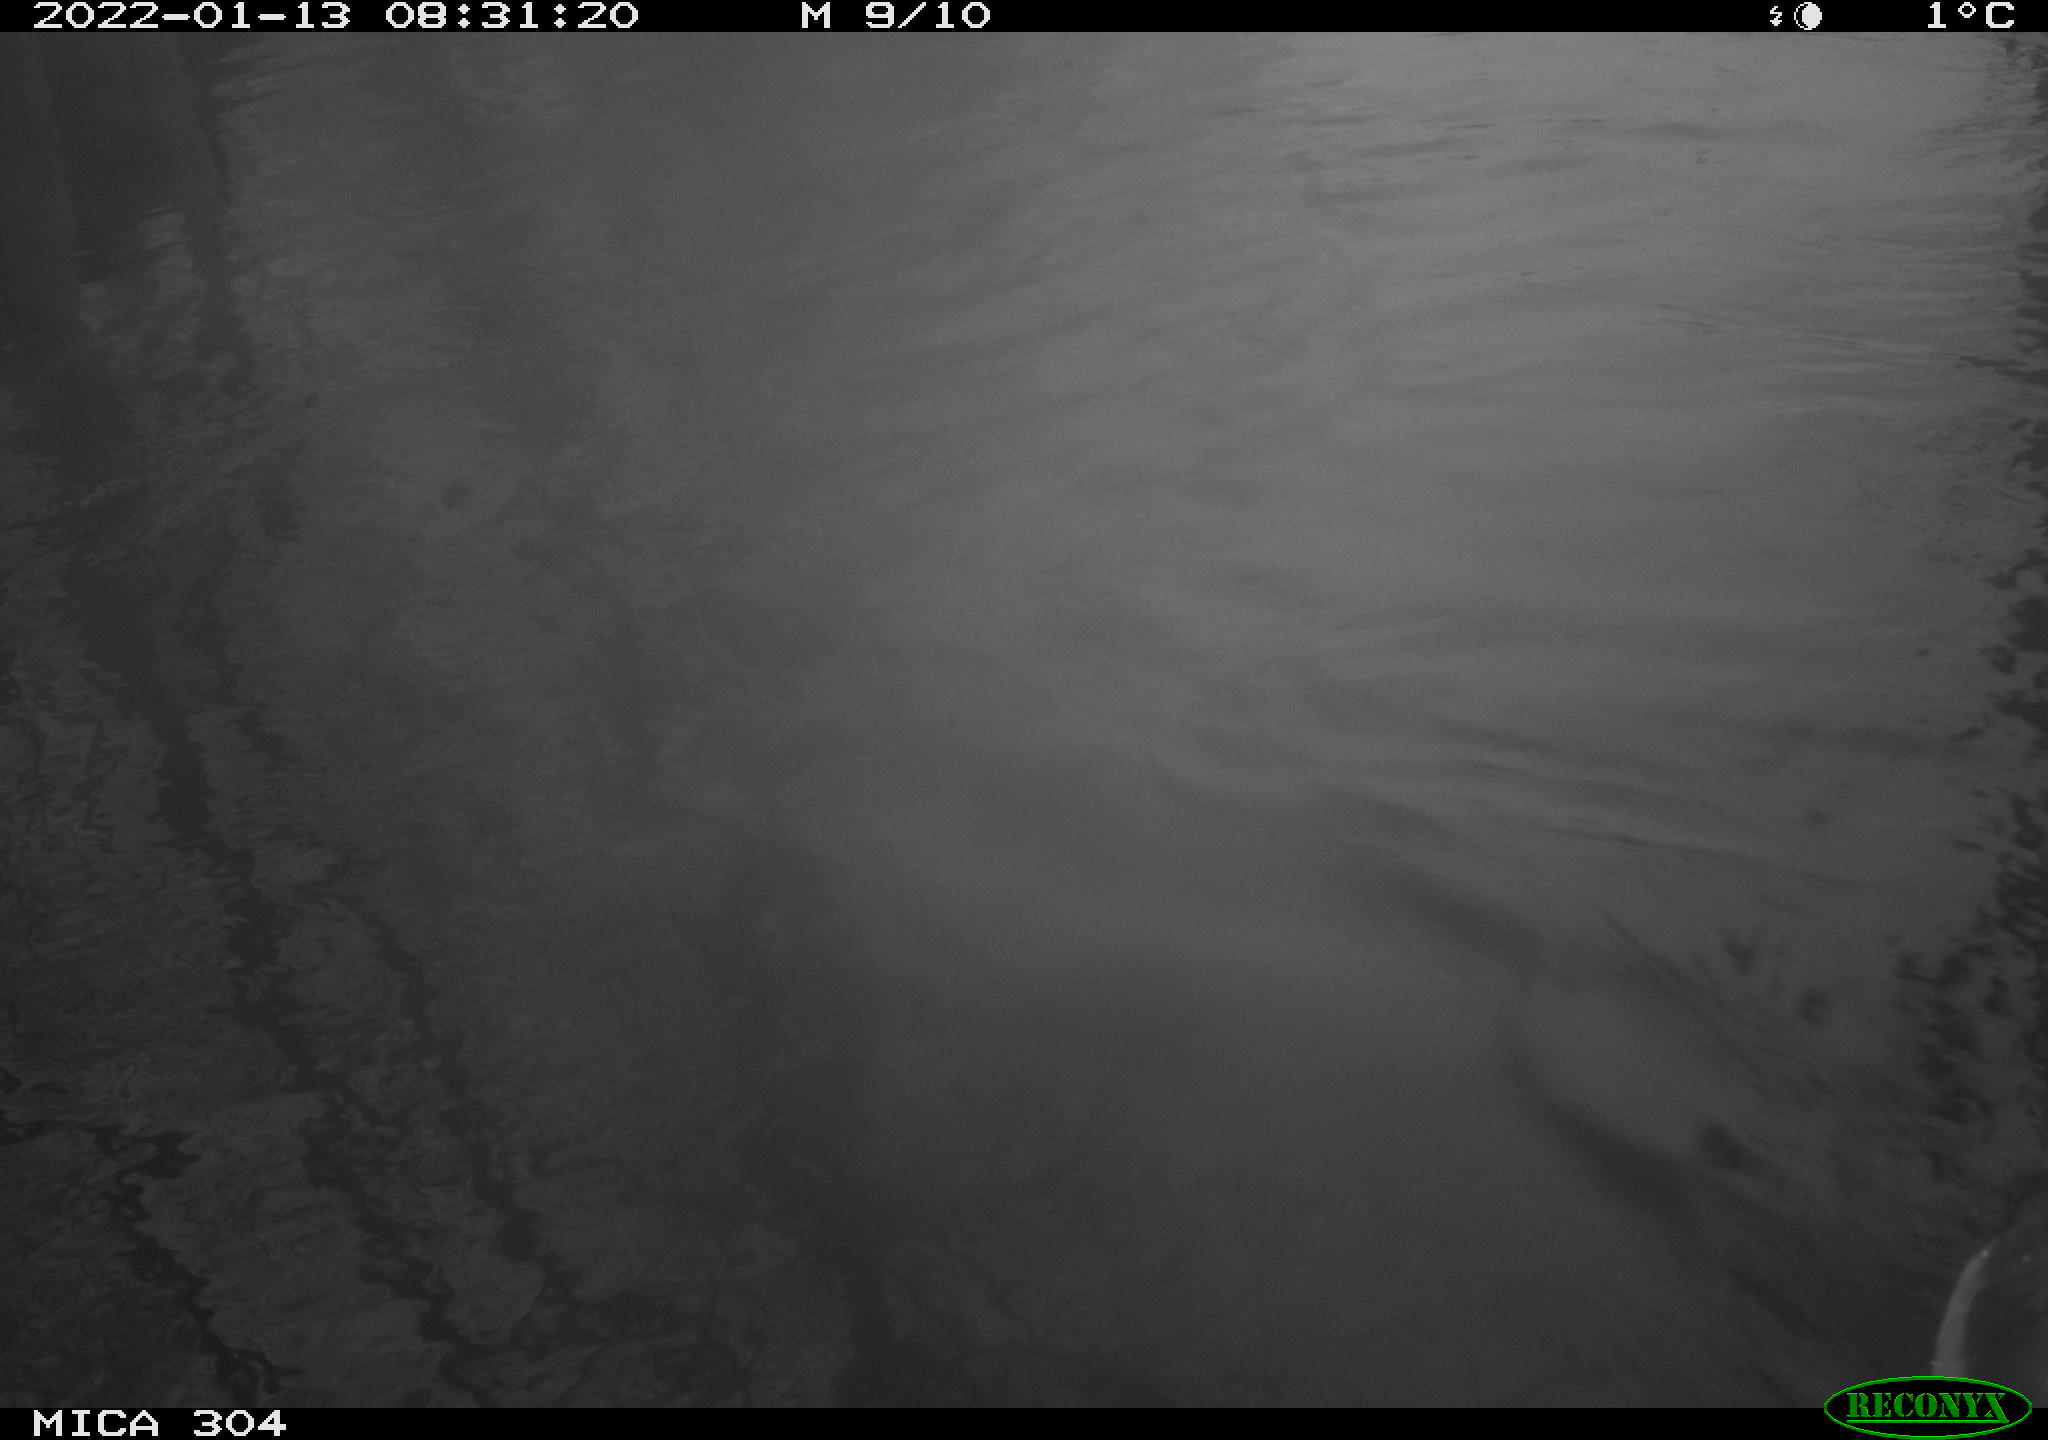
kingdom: Animalia
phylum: Chordata
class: Aves
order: Gruiformes
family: Rallidae
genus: Gallinula
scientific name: Gallinula chloropus
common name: Common moorhen
